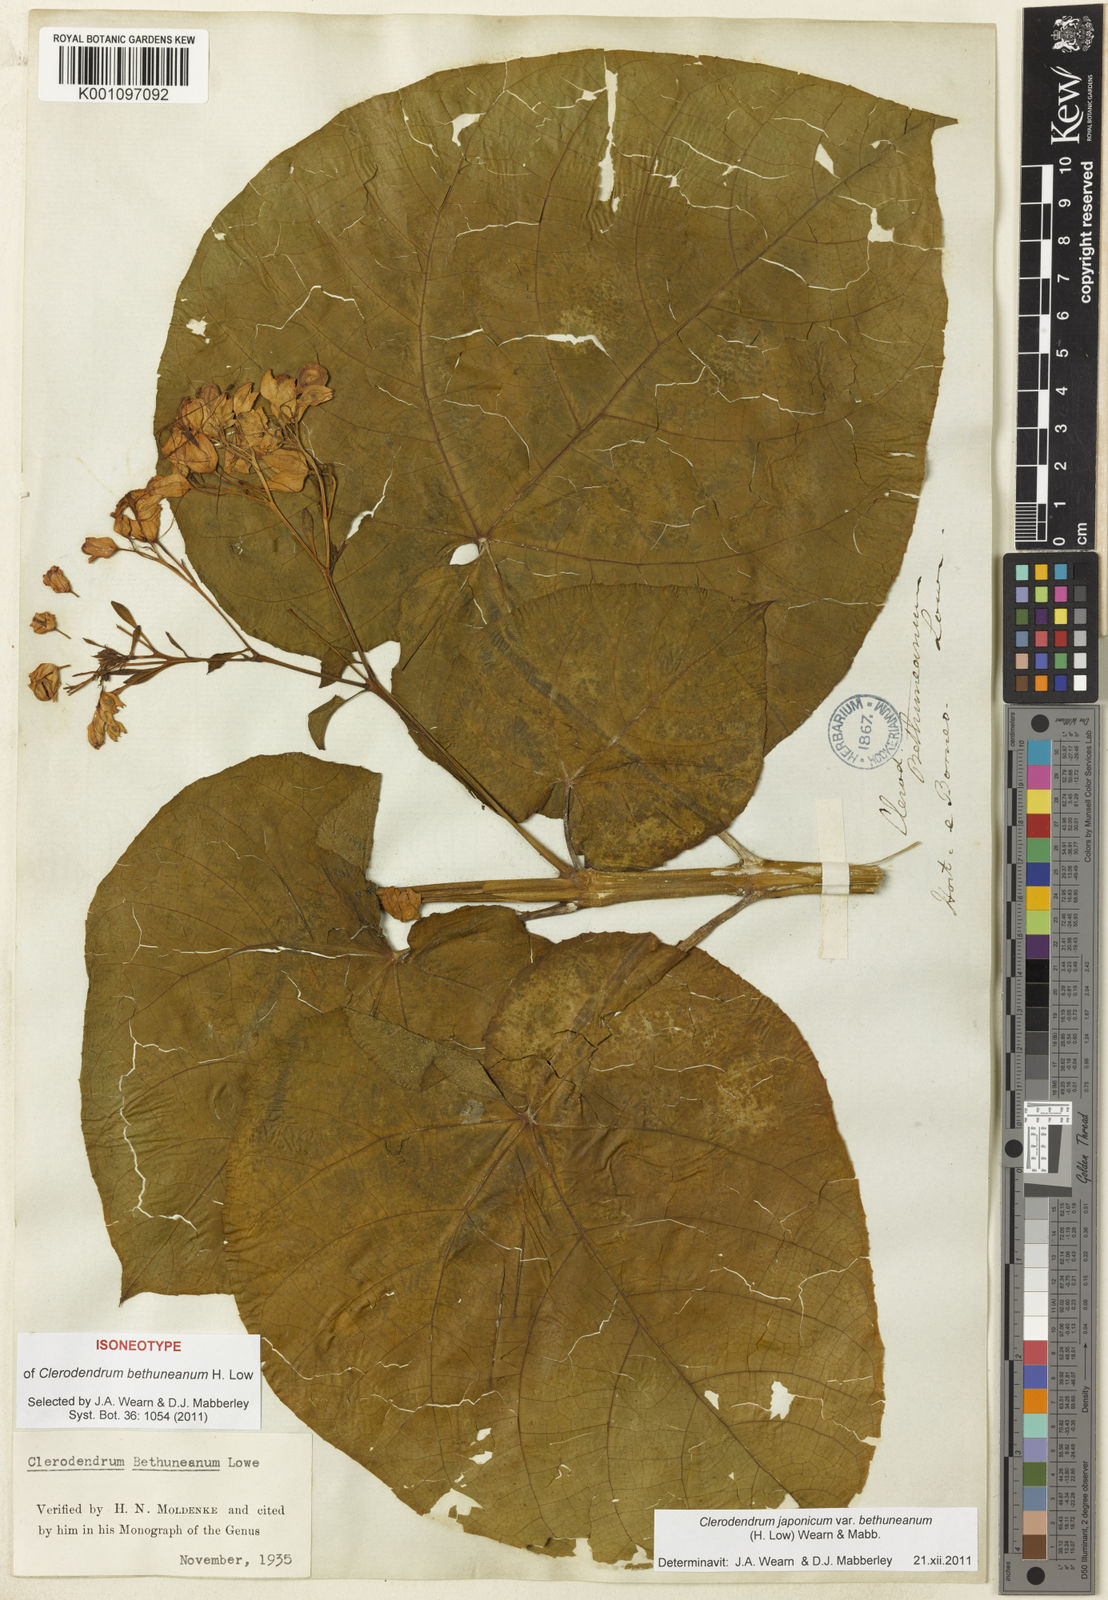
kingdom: Plantae
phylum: Tracheophyta
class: Magnoliopsida
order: Lamiales
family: Lamiaceae
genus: Clerodendrum
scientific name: Clerodendrum japonicum
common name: Japanese glorybower
